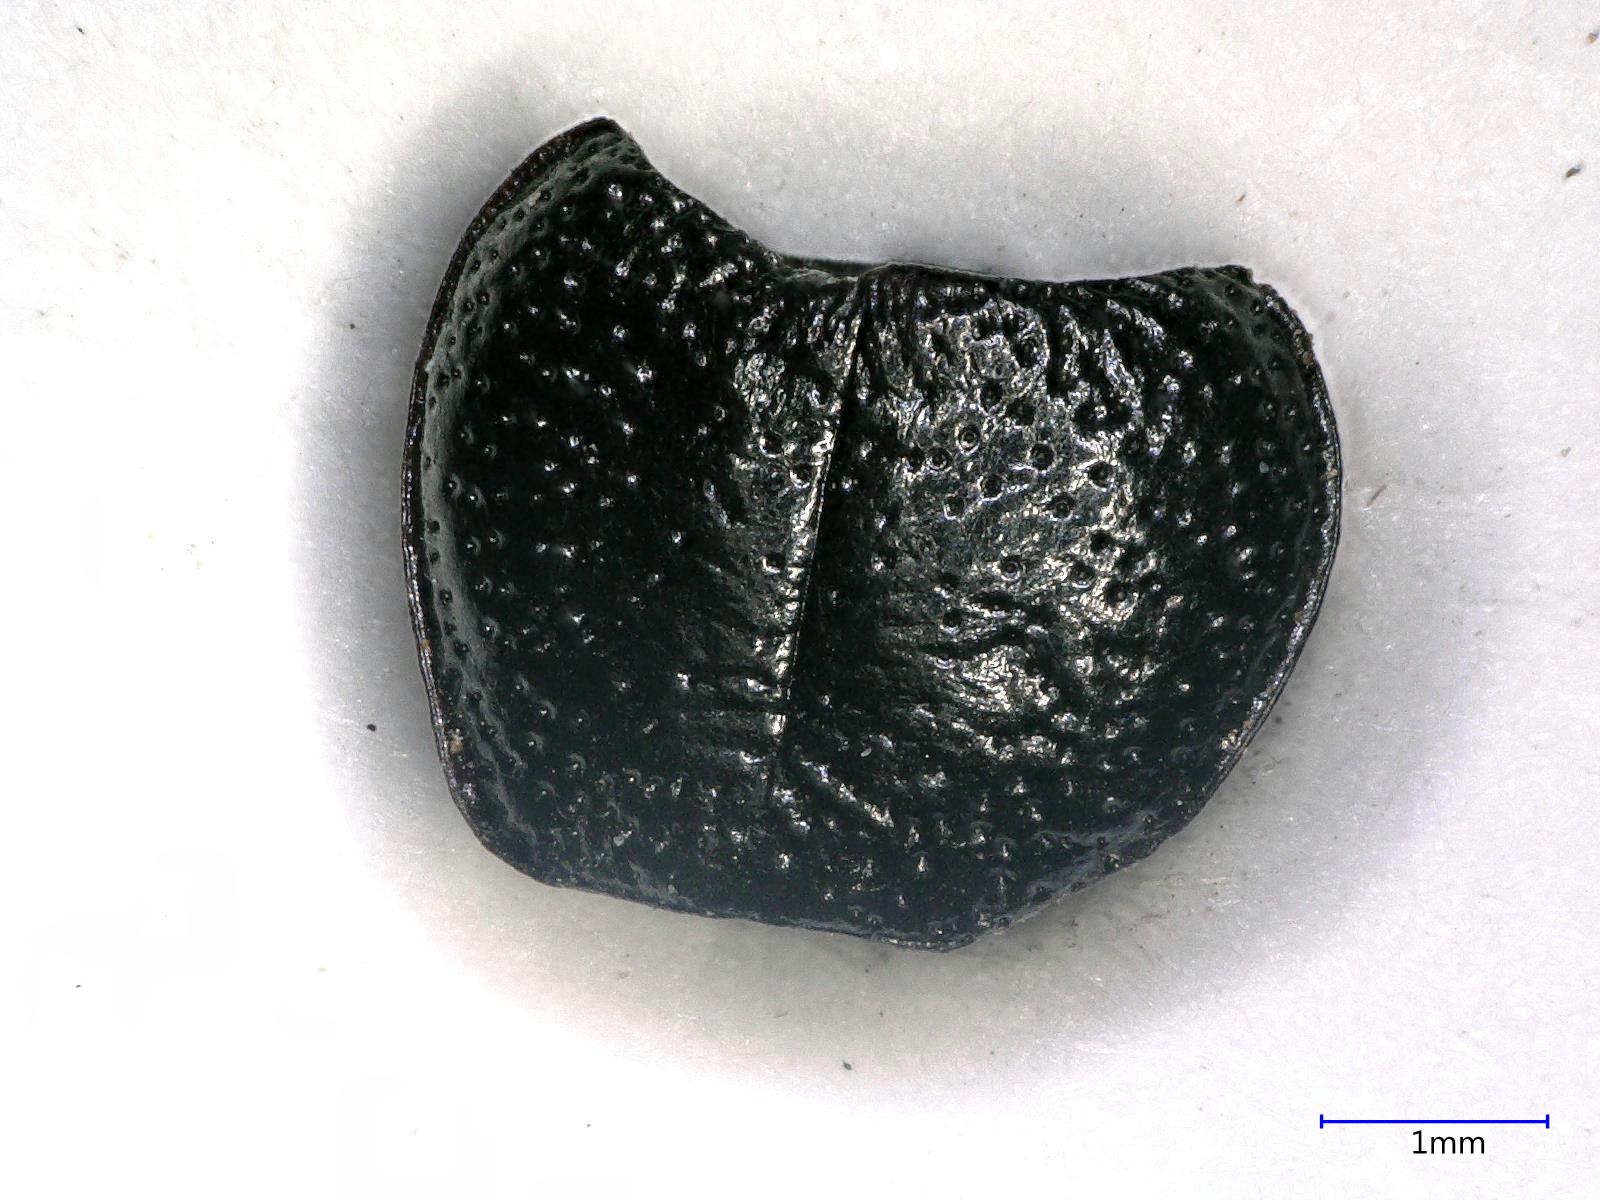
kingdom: Animalia
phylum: Arthropoda
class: Insecta
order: Coleoptera
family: Carabidae
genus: Dicheirus
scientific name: Dicheirus dilatatus
